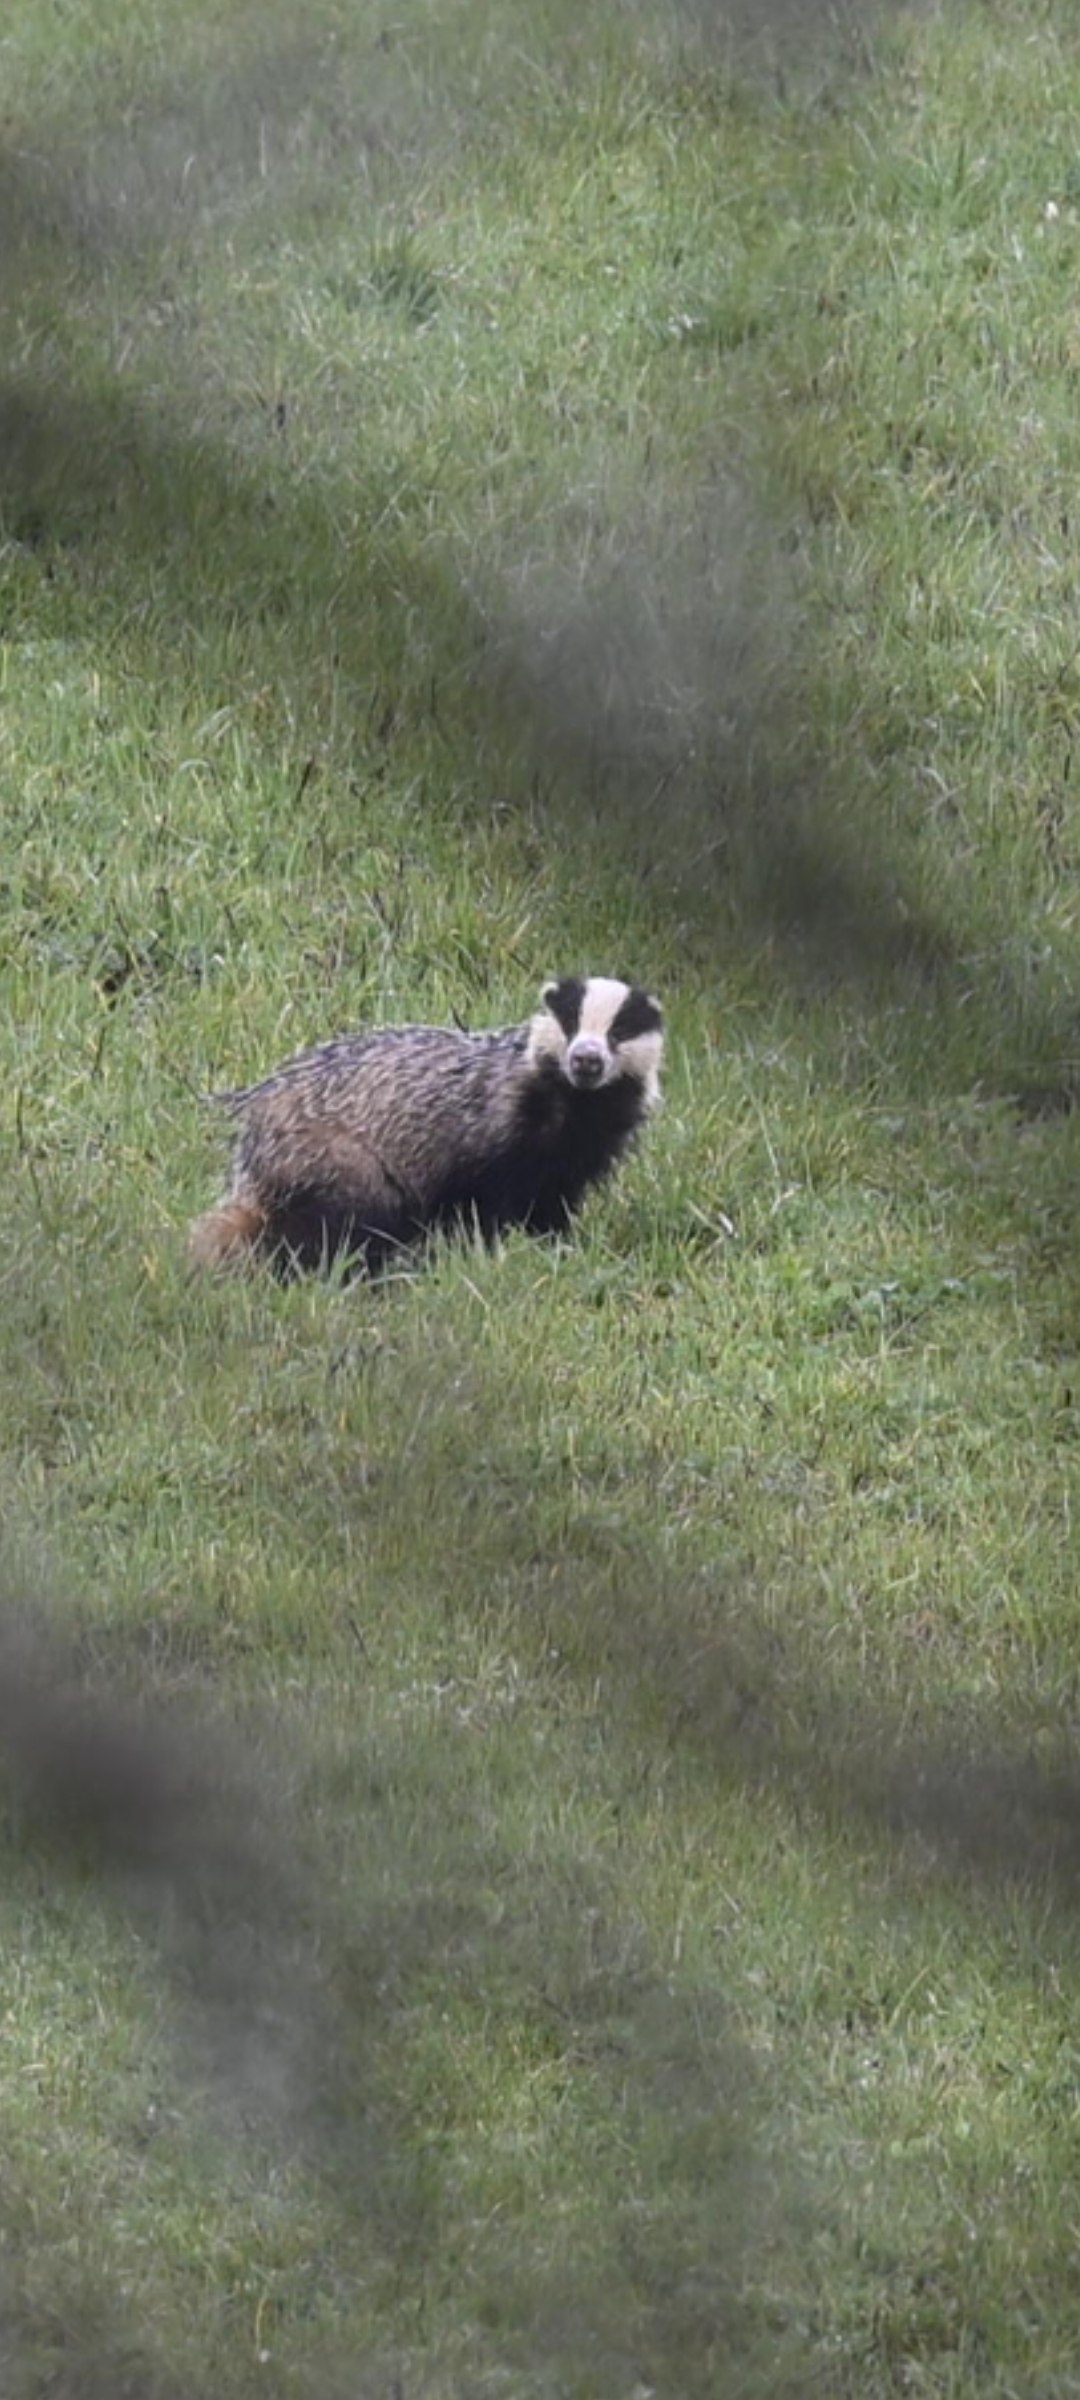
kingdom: Animalia
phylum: Chordata
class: Mammalia
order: Carnivora
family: Mustelidae
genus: Meles
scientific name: Meles meles
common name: Grævling
